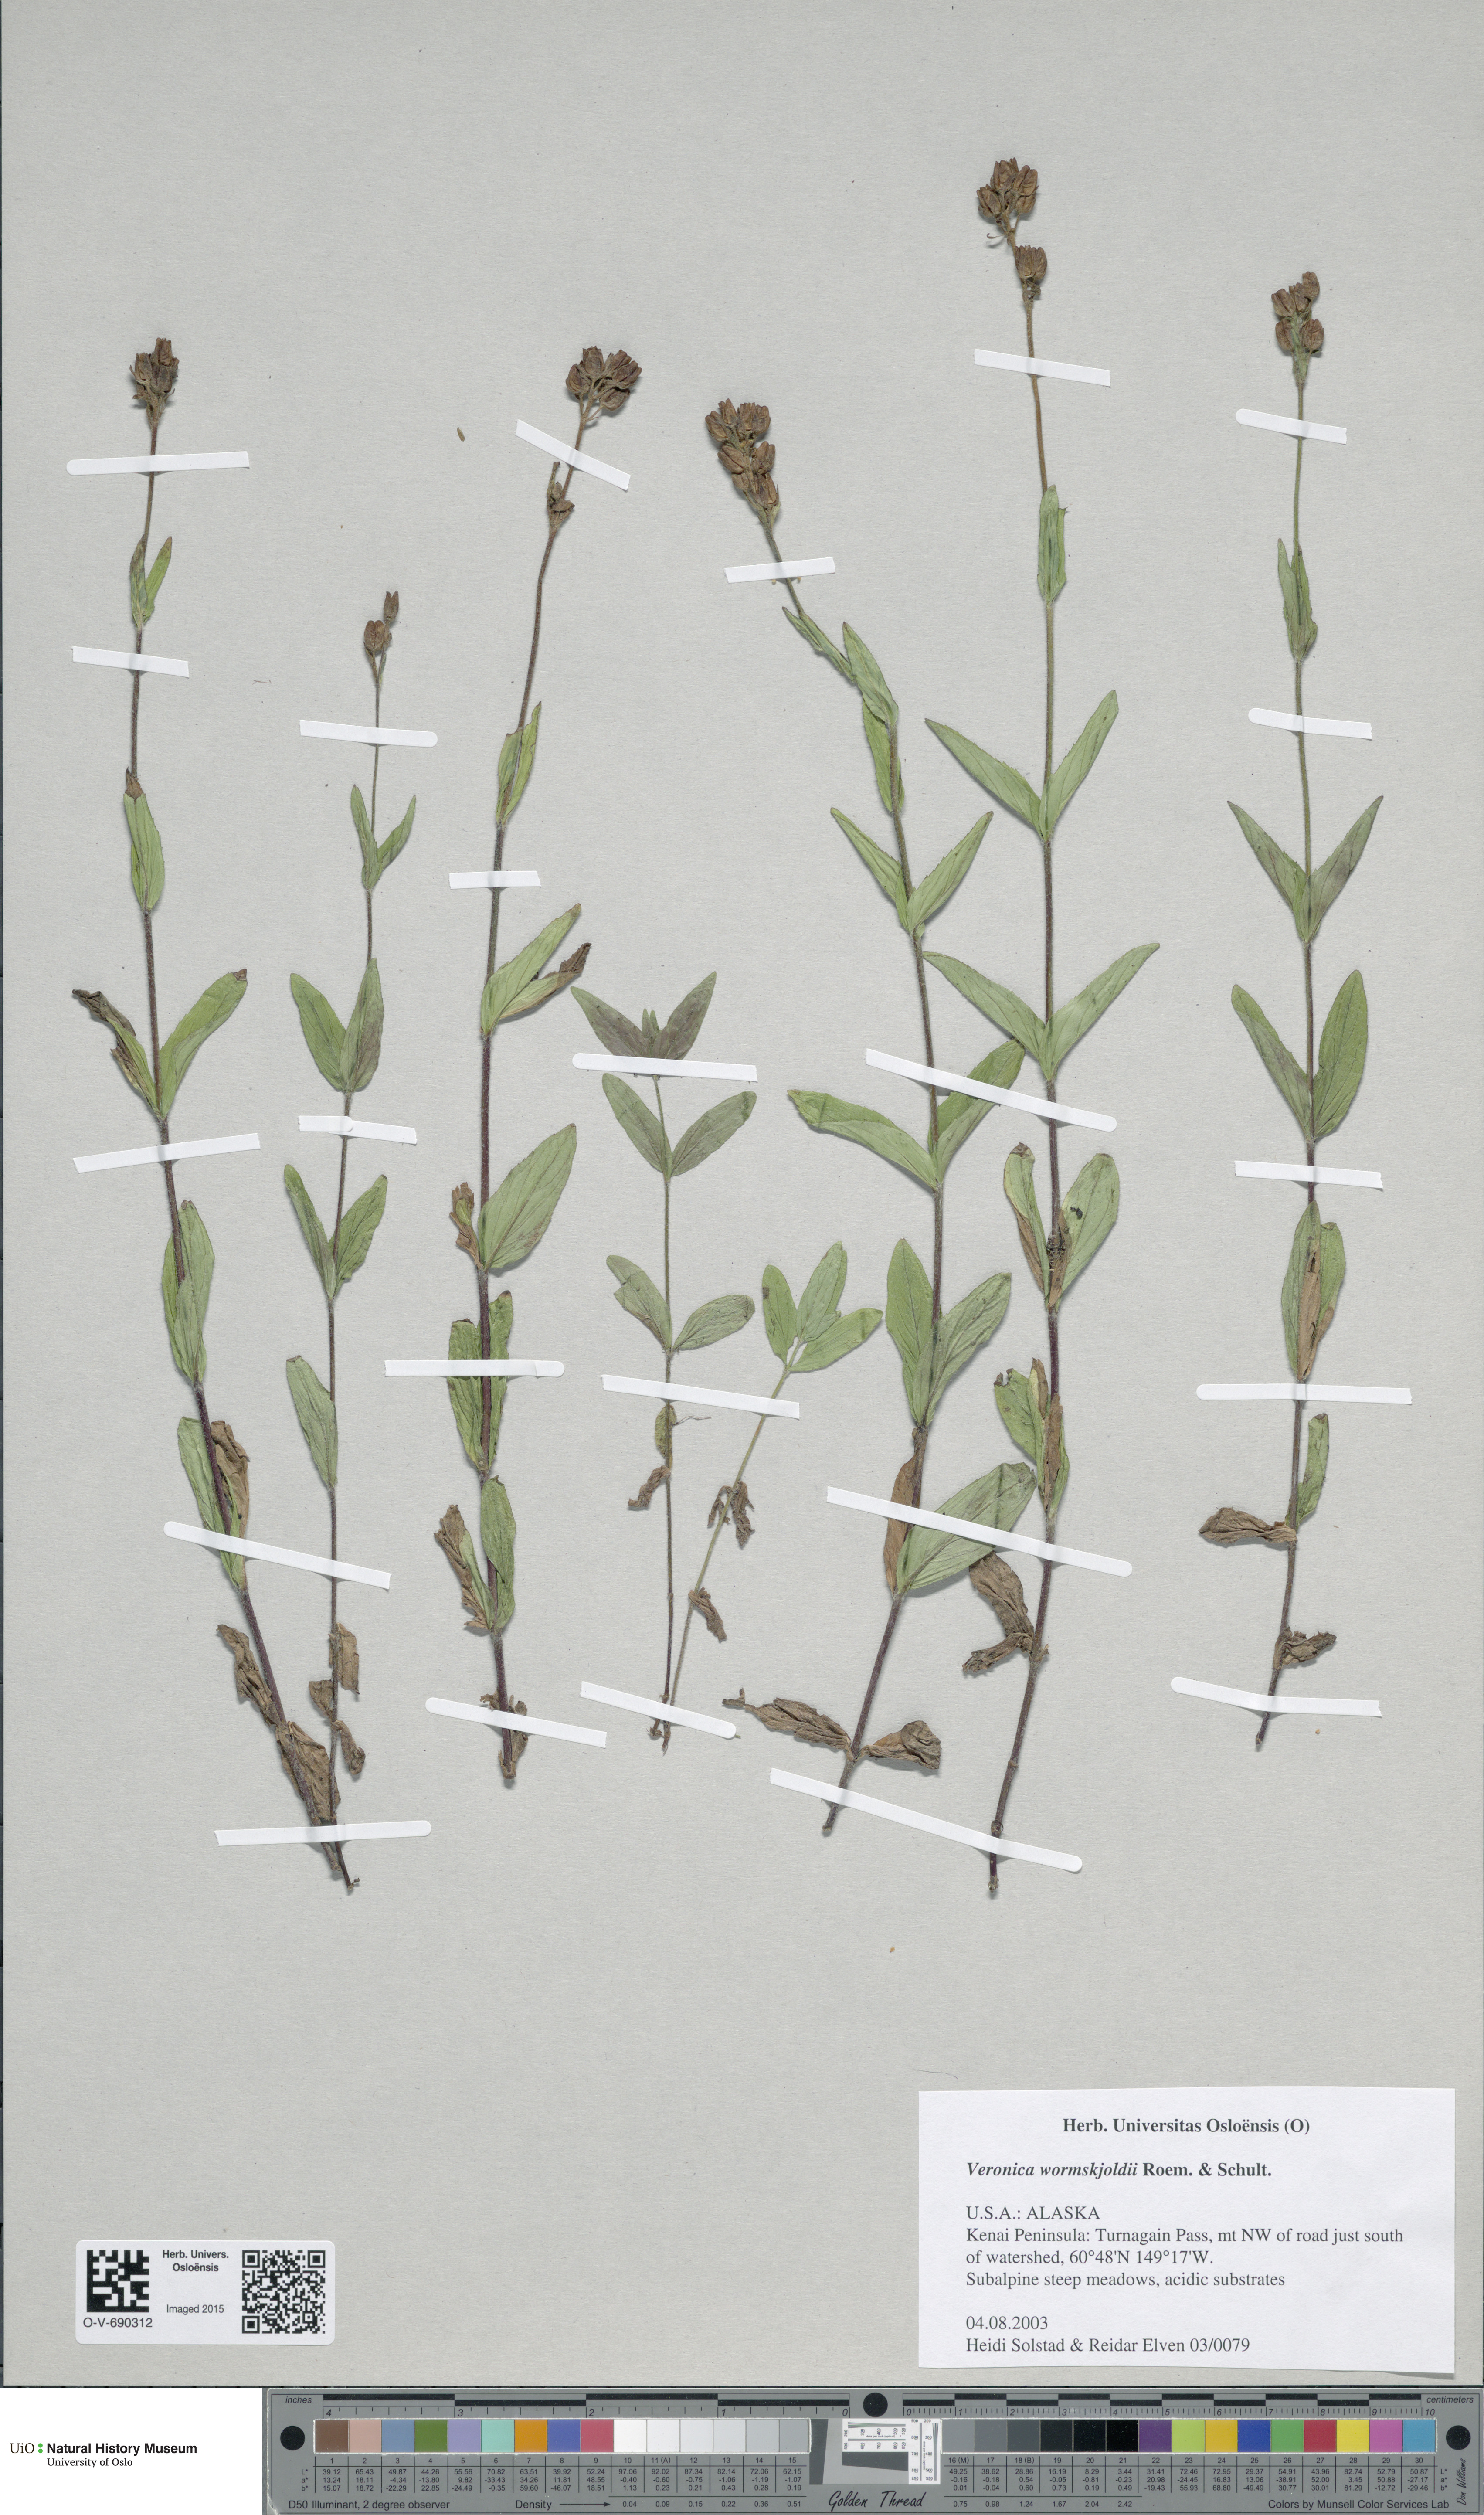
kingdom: Plantae
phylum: Tracheophyta
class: Magnoliopsida
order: Lamiales
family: Plantaginaceae
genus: Veronica
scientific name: Veronica wormskjoldii
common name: American alpine speedwell
